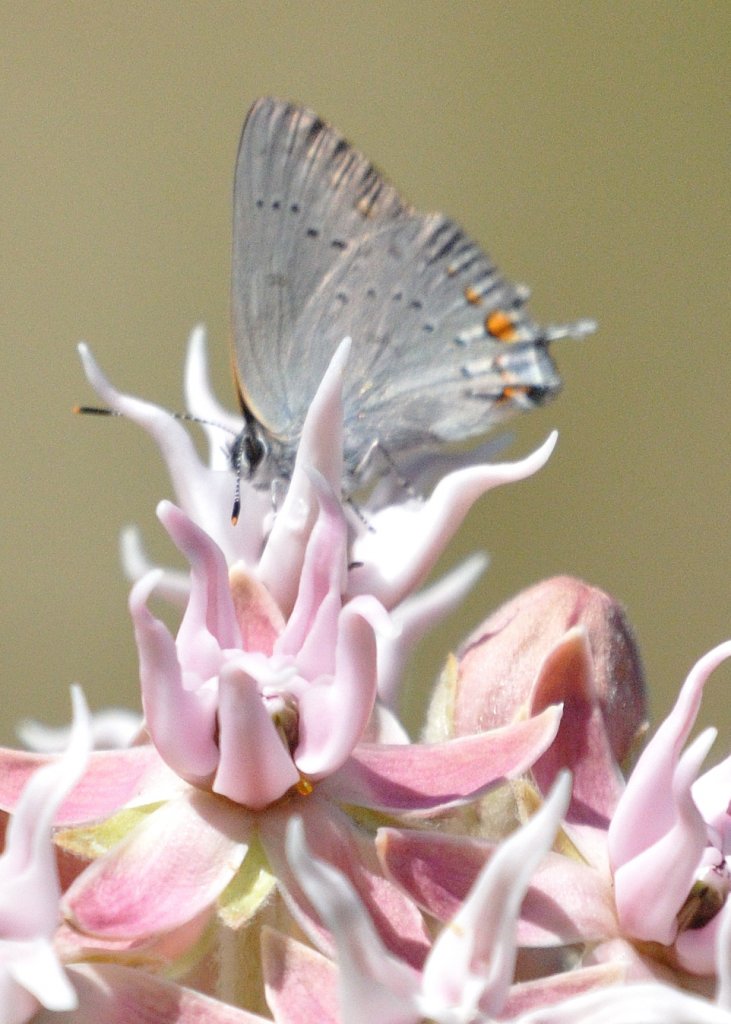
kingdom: Animalia
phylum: Arthropoda
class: Insecta
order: Lepidoptera
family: Lycaenidae
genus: Strymon
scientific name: Strymon acadica
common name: California Hairstreak
